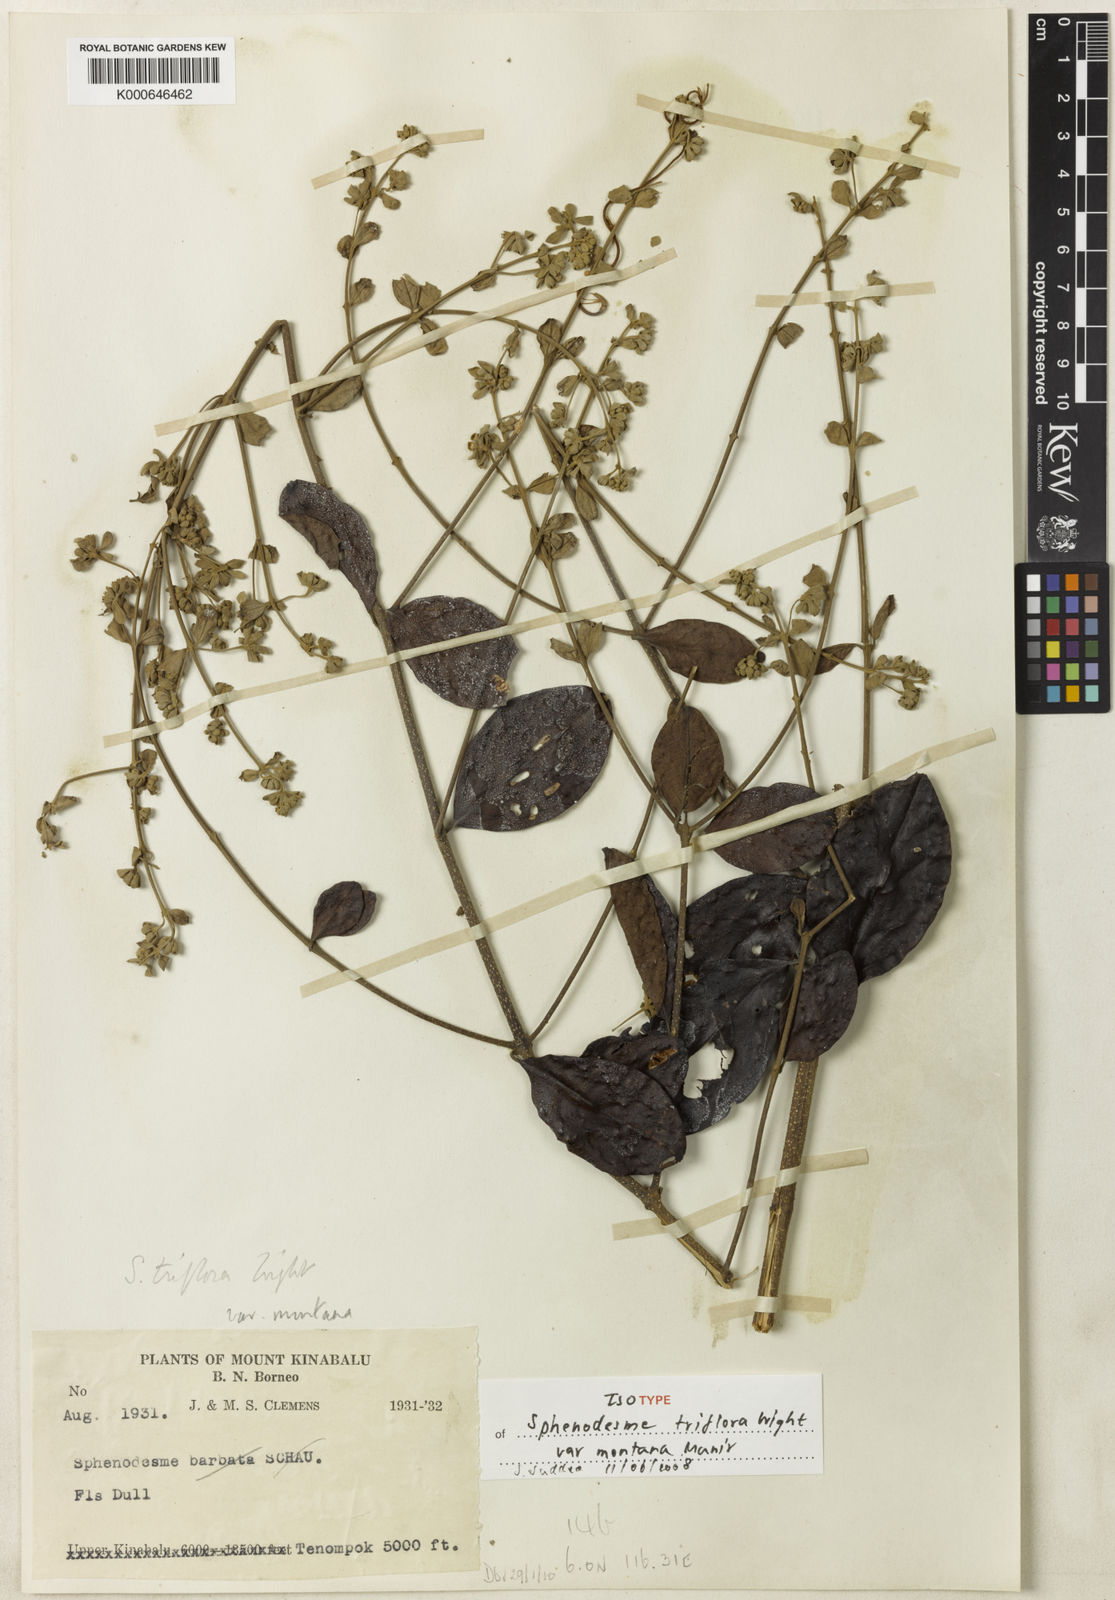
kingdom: Plantae
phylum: Tracheophyta
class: Magnoliopsida
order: Lamiales
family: Lamiaceae
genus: Sphenodesme
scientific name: Sphenodesme
